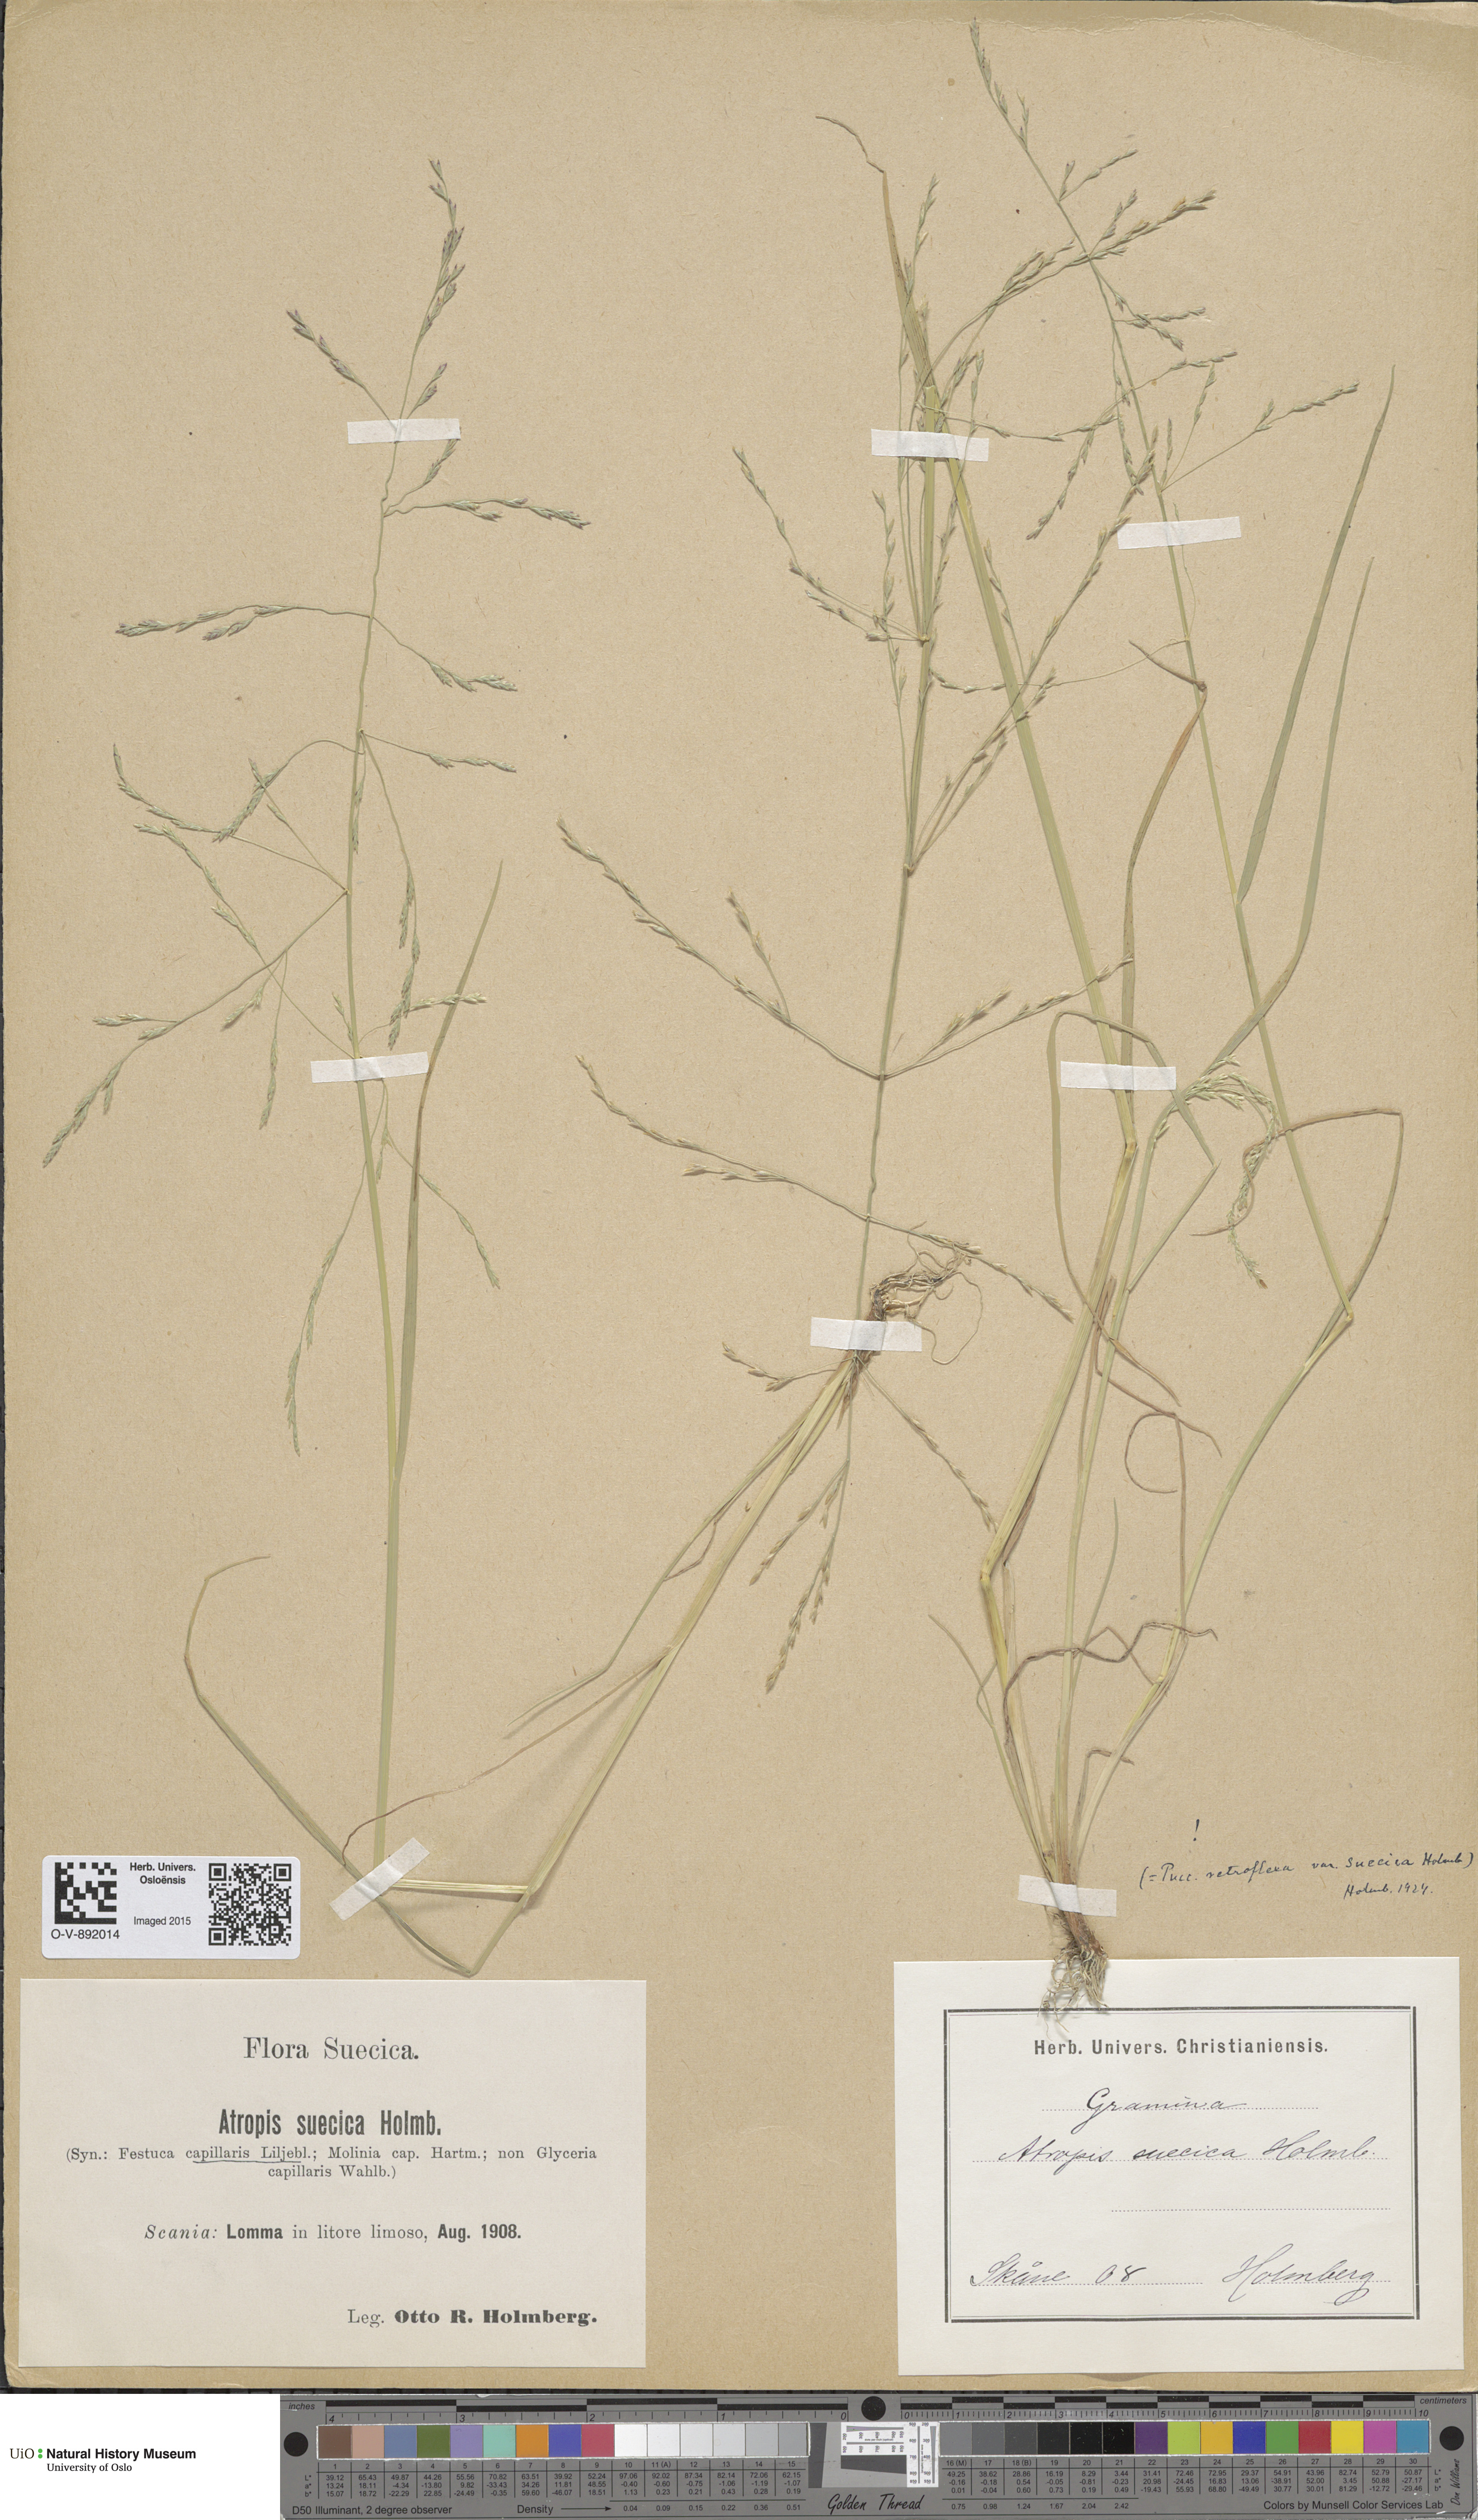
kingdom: Plantae
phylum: Tracheophyta
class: Liliopsida
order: Poales
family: Poaceae
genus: Puccinellia
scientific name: Puccinellia distans
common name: Weeping alkaligrass
